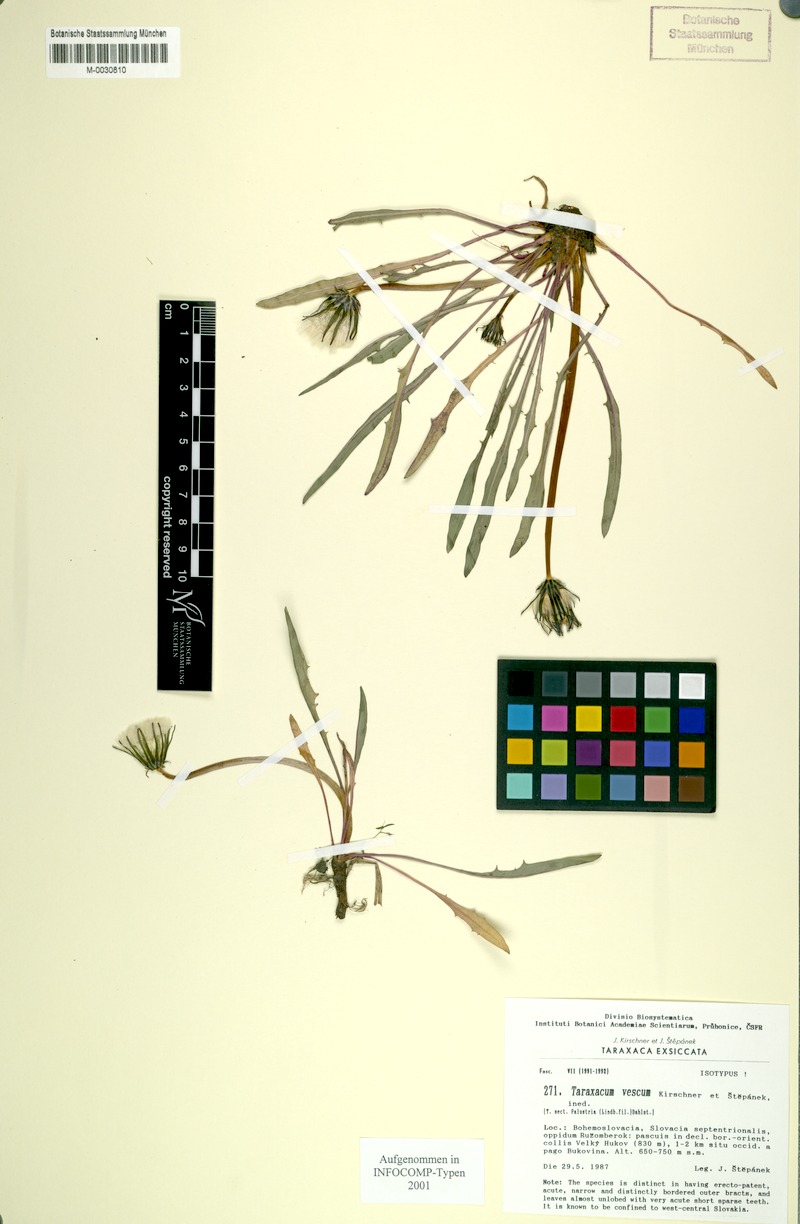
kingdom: Plantae
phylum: Tracheophyta
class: Magnoliopsida
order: Asterales
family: Asteraceae
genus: Taraxacum
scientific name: Taraxacum
